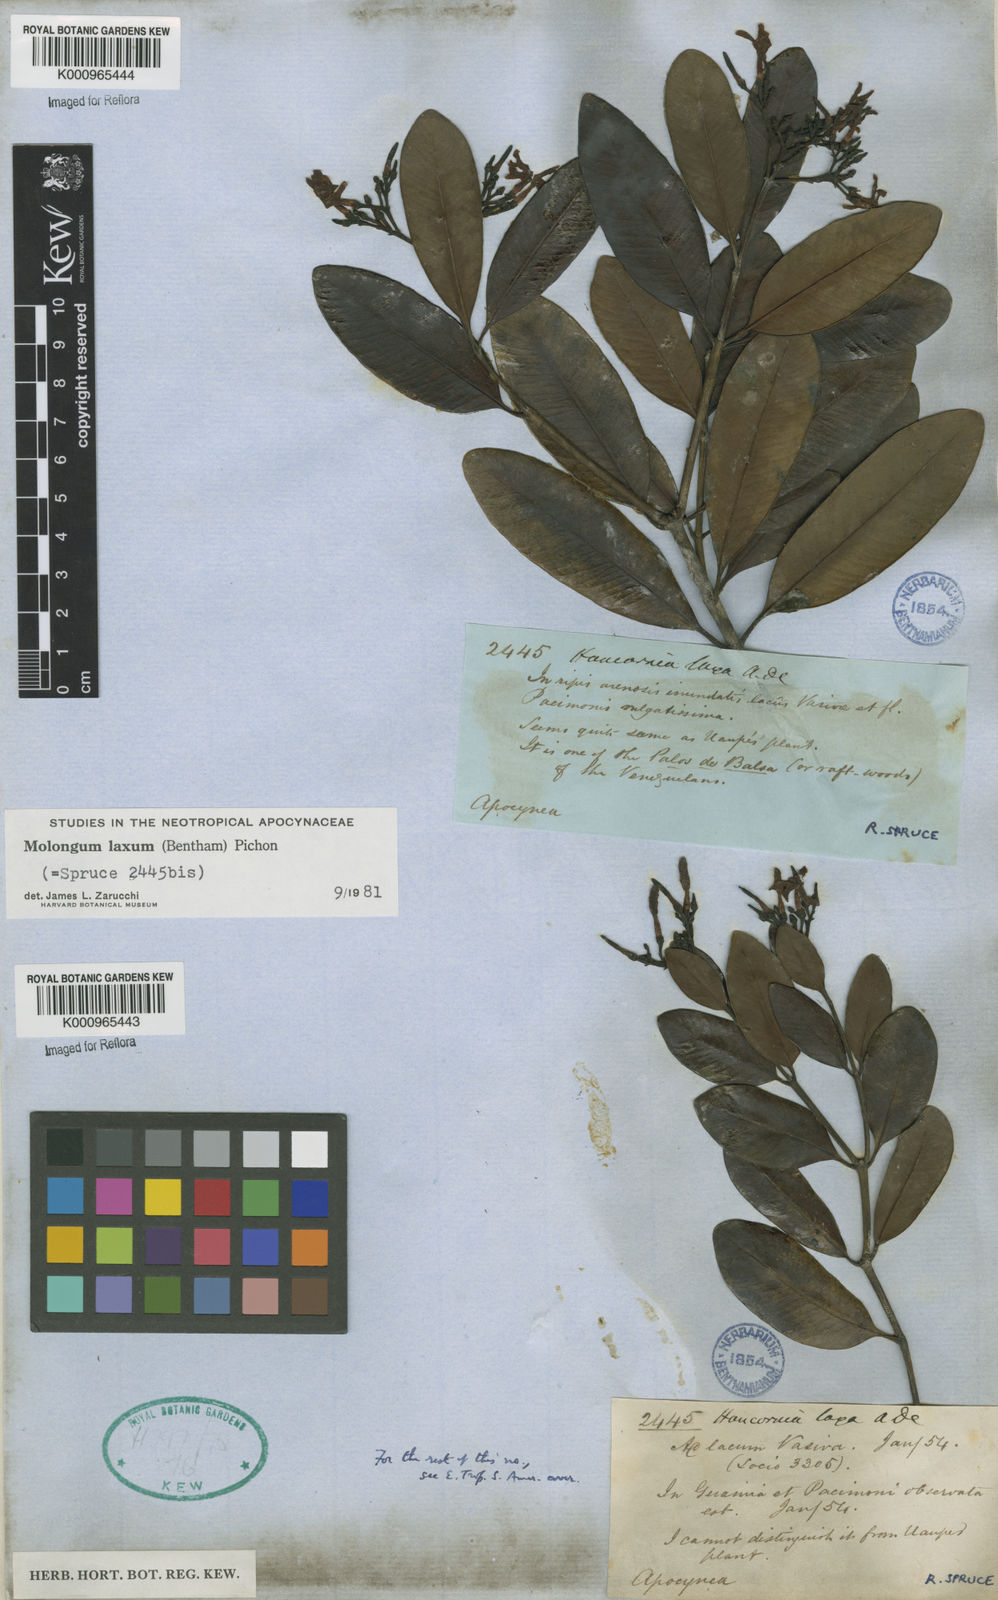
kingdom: Plantae
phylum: Tracheophyta
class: Magnoliopsida
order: Gentianales
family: Apocynaceae
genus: Molongum
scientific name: Molongum laxum
